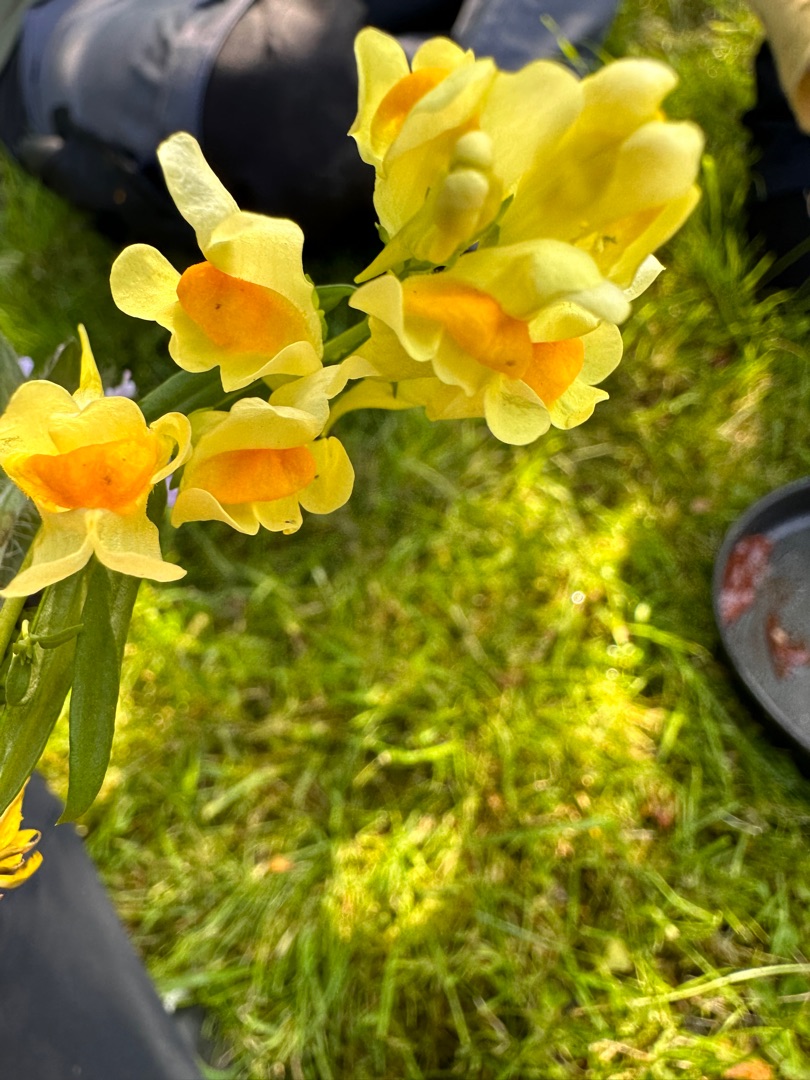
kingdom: Plantae
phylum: Tracheophyta
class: Magnoliopsida
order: Lamiales
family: Plantaginaceae
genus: Linaria
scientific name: Linaria vulgaris
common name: Almindelig torskemund
